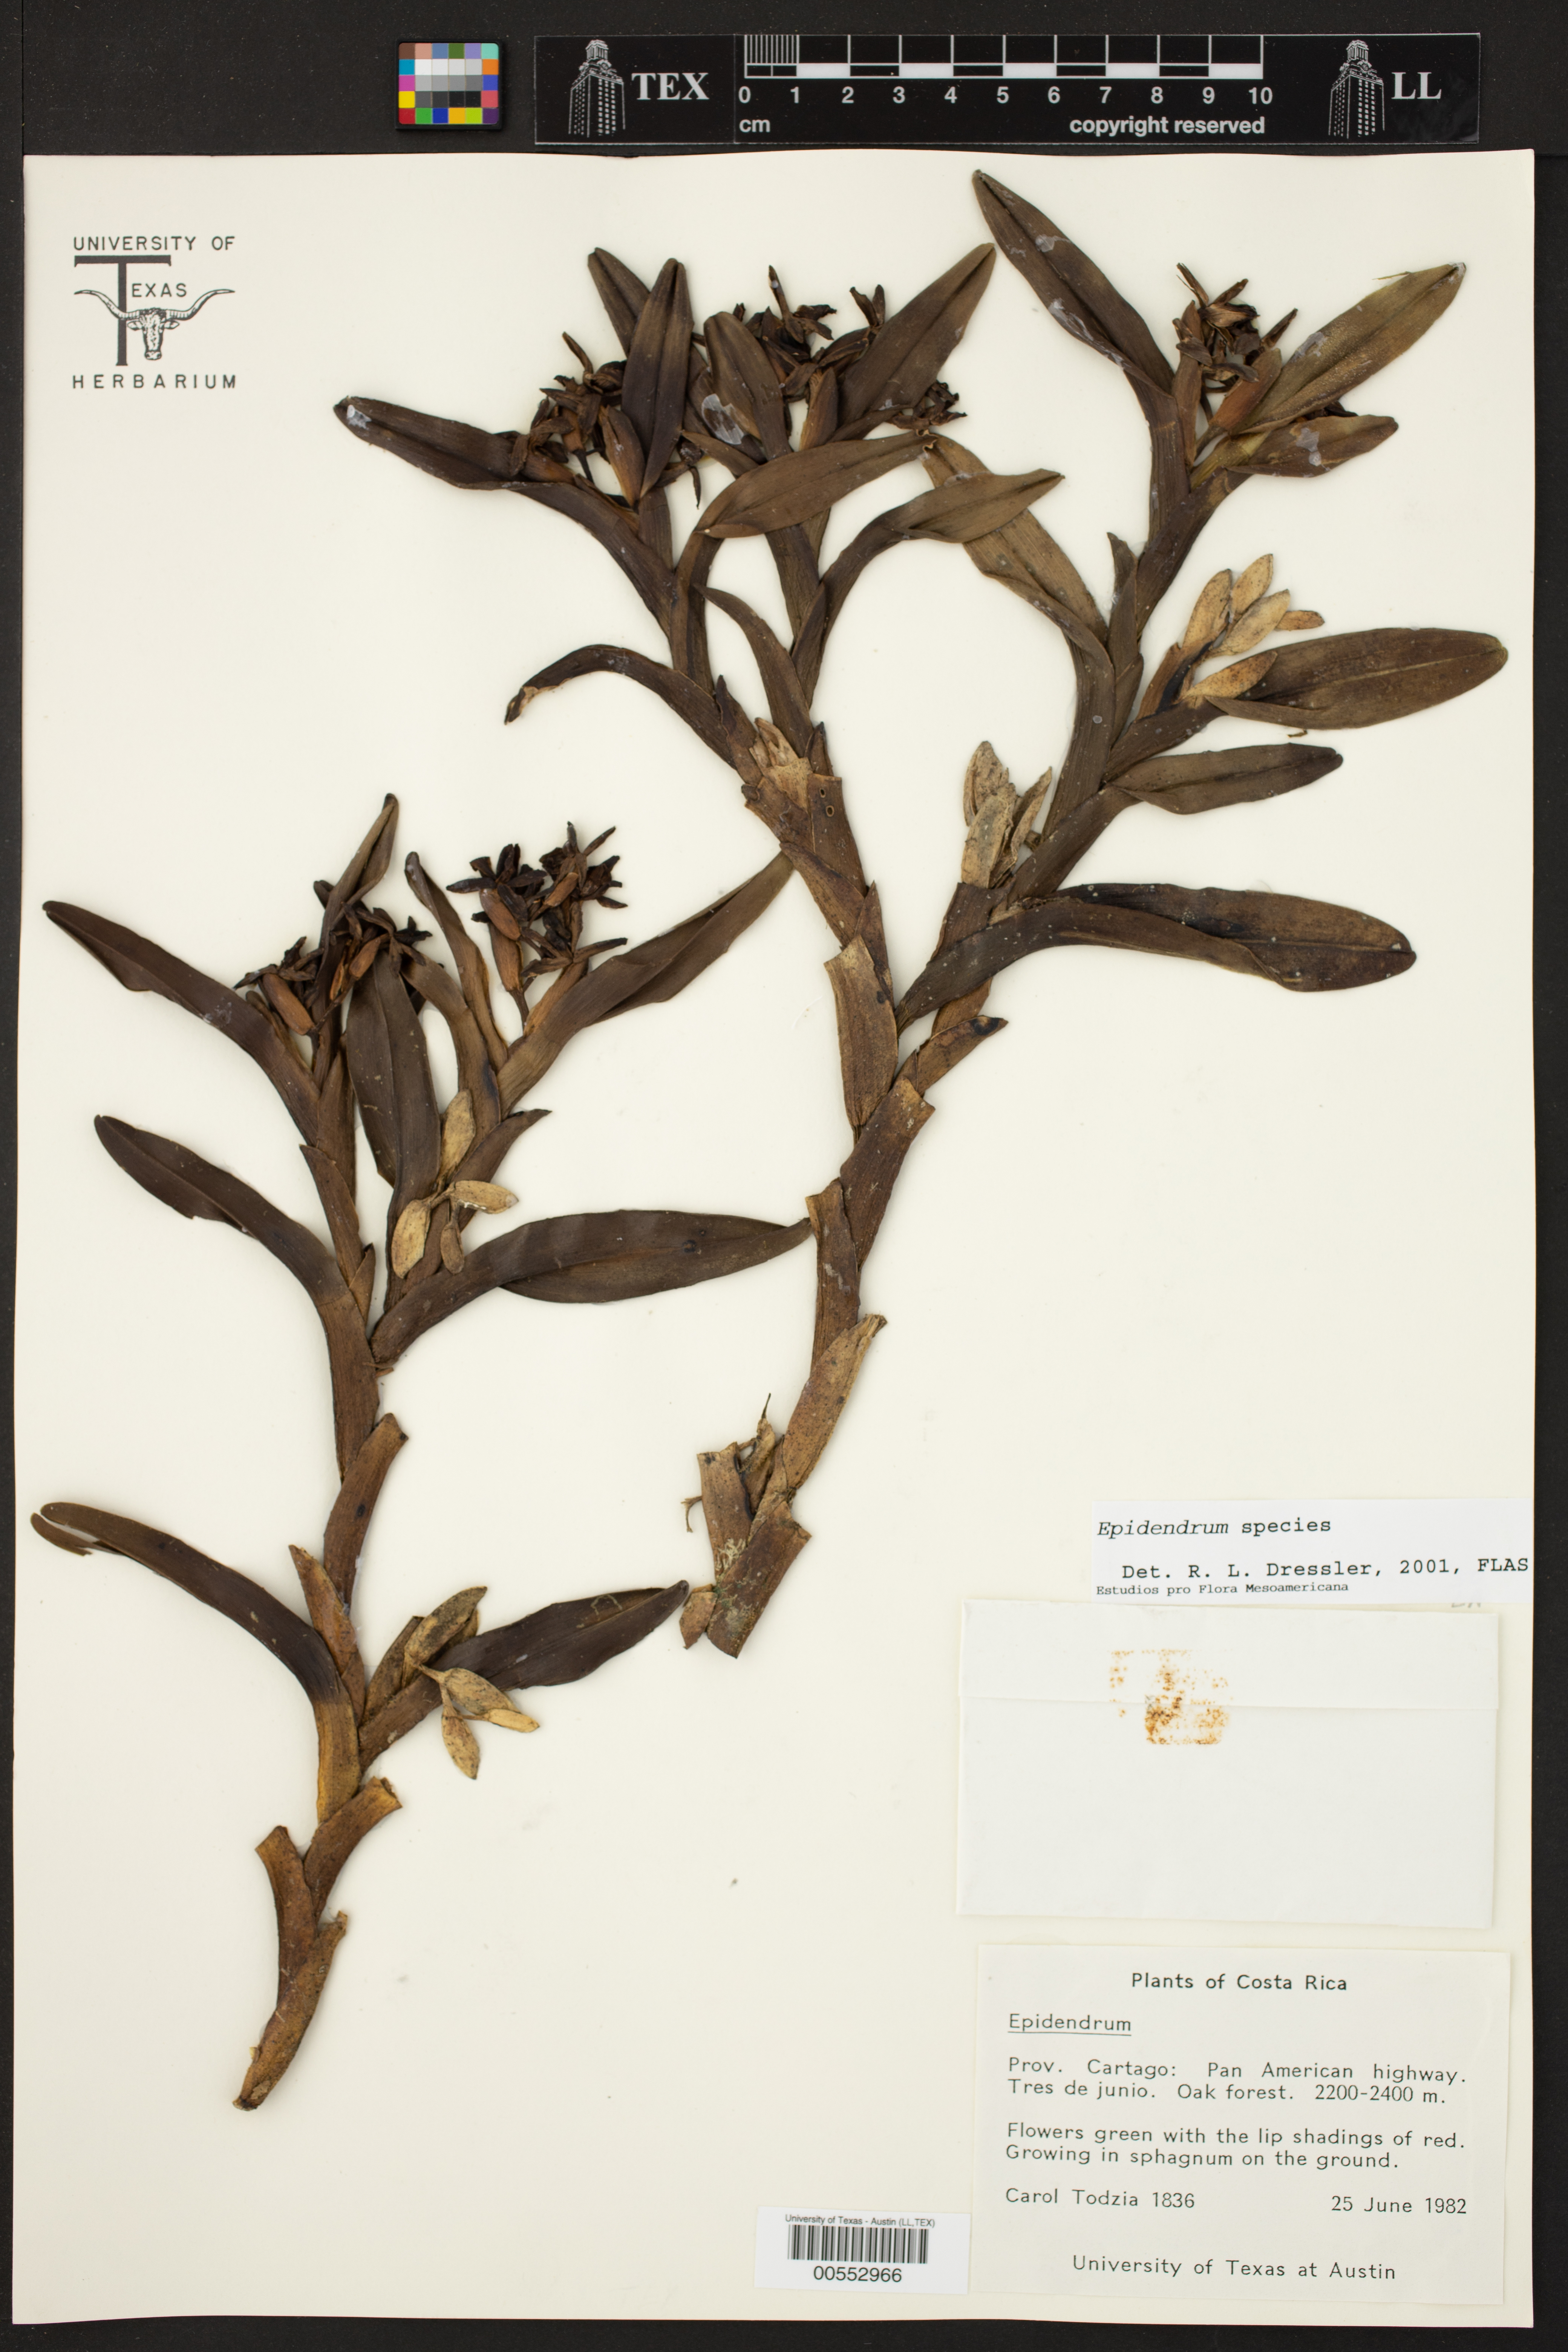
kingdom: Plantae
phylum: Tracheophyta
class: Liliopsida
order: Asparagales
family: Orchidaceae
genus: Epidendrum
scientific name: Epidendrum
